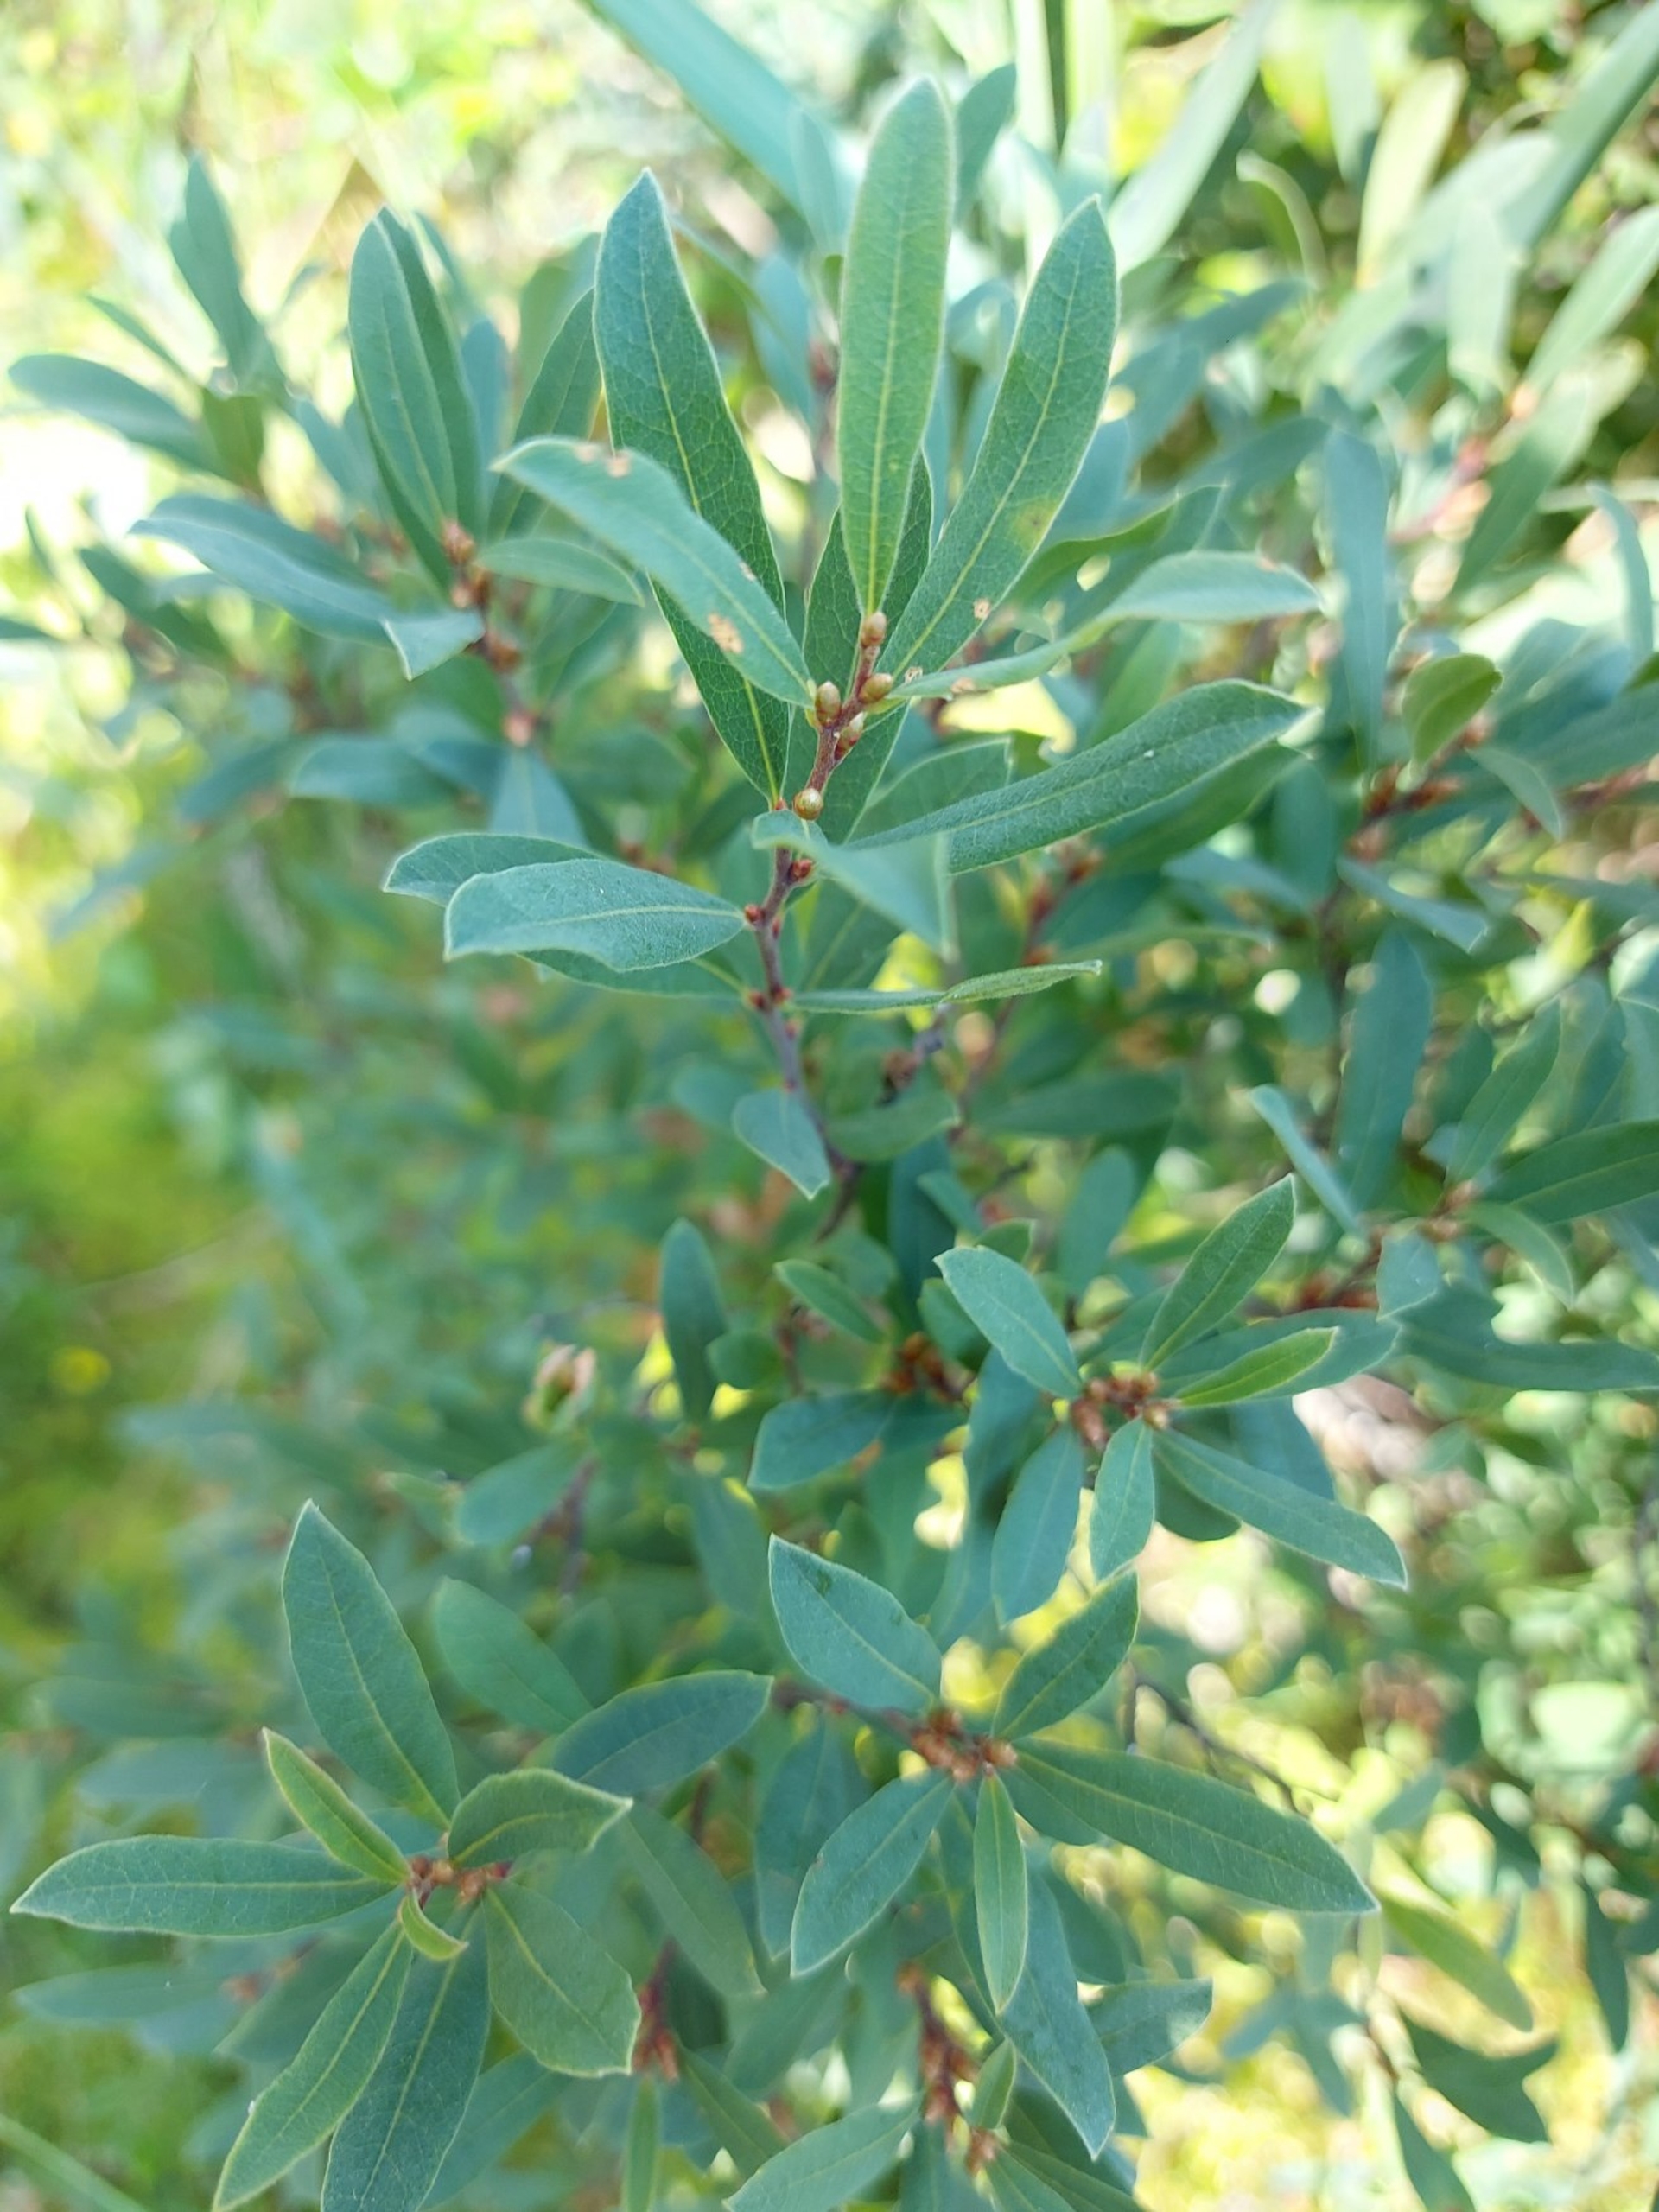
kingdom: Plantae
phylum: Tracheophyta
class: Magnoliopsida
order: Fagales
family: Myricaceae
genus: Myrica
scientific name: Myrica gale
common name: Pors
